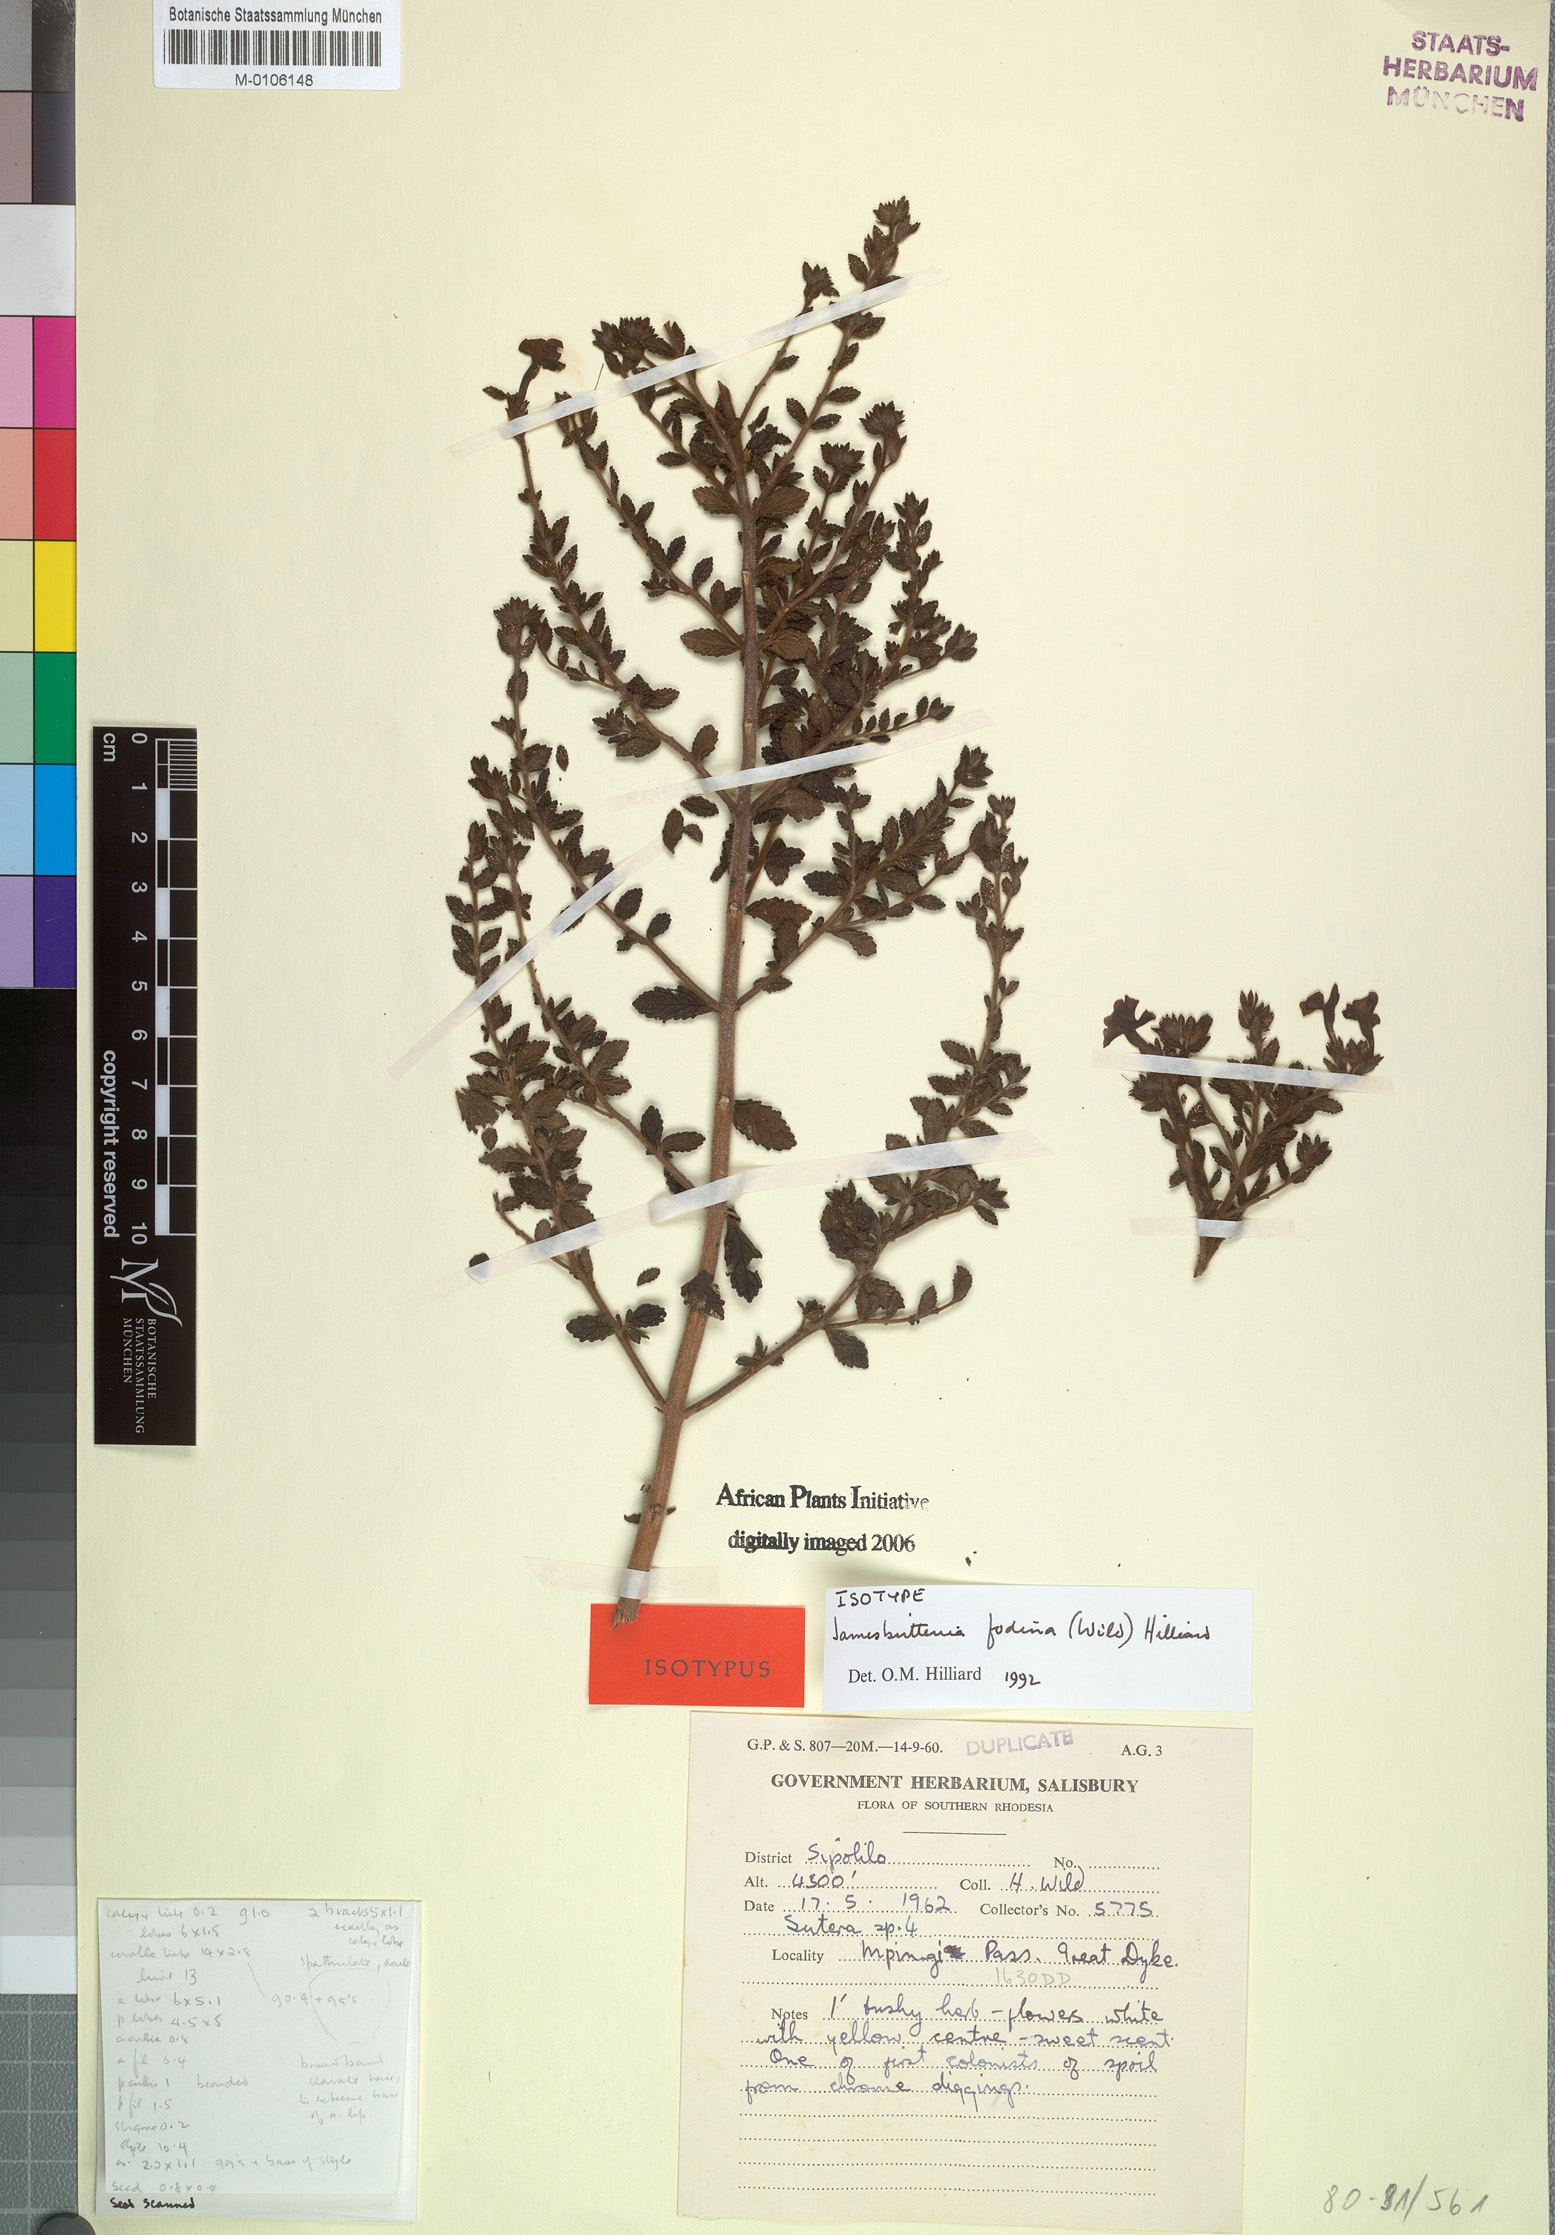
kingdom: Plantae
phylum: Tracheophyta
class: Magnoliopsida
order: Lamiales
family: Scrophulariaceae
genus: Jamesbrittenia
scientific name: Jamesbrittenia fodina
